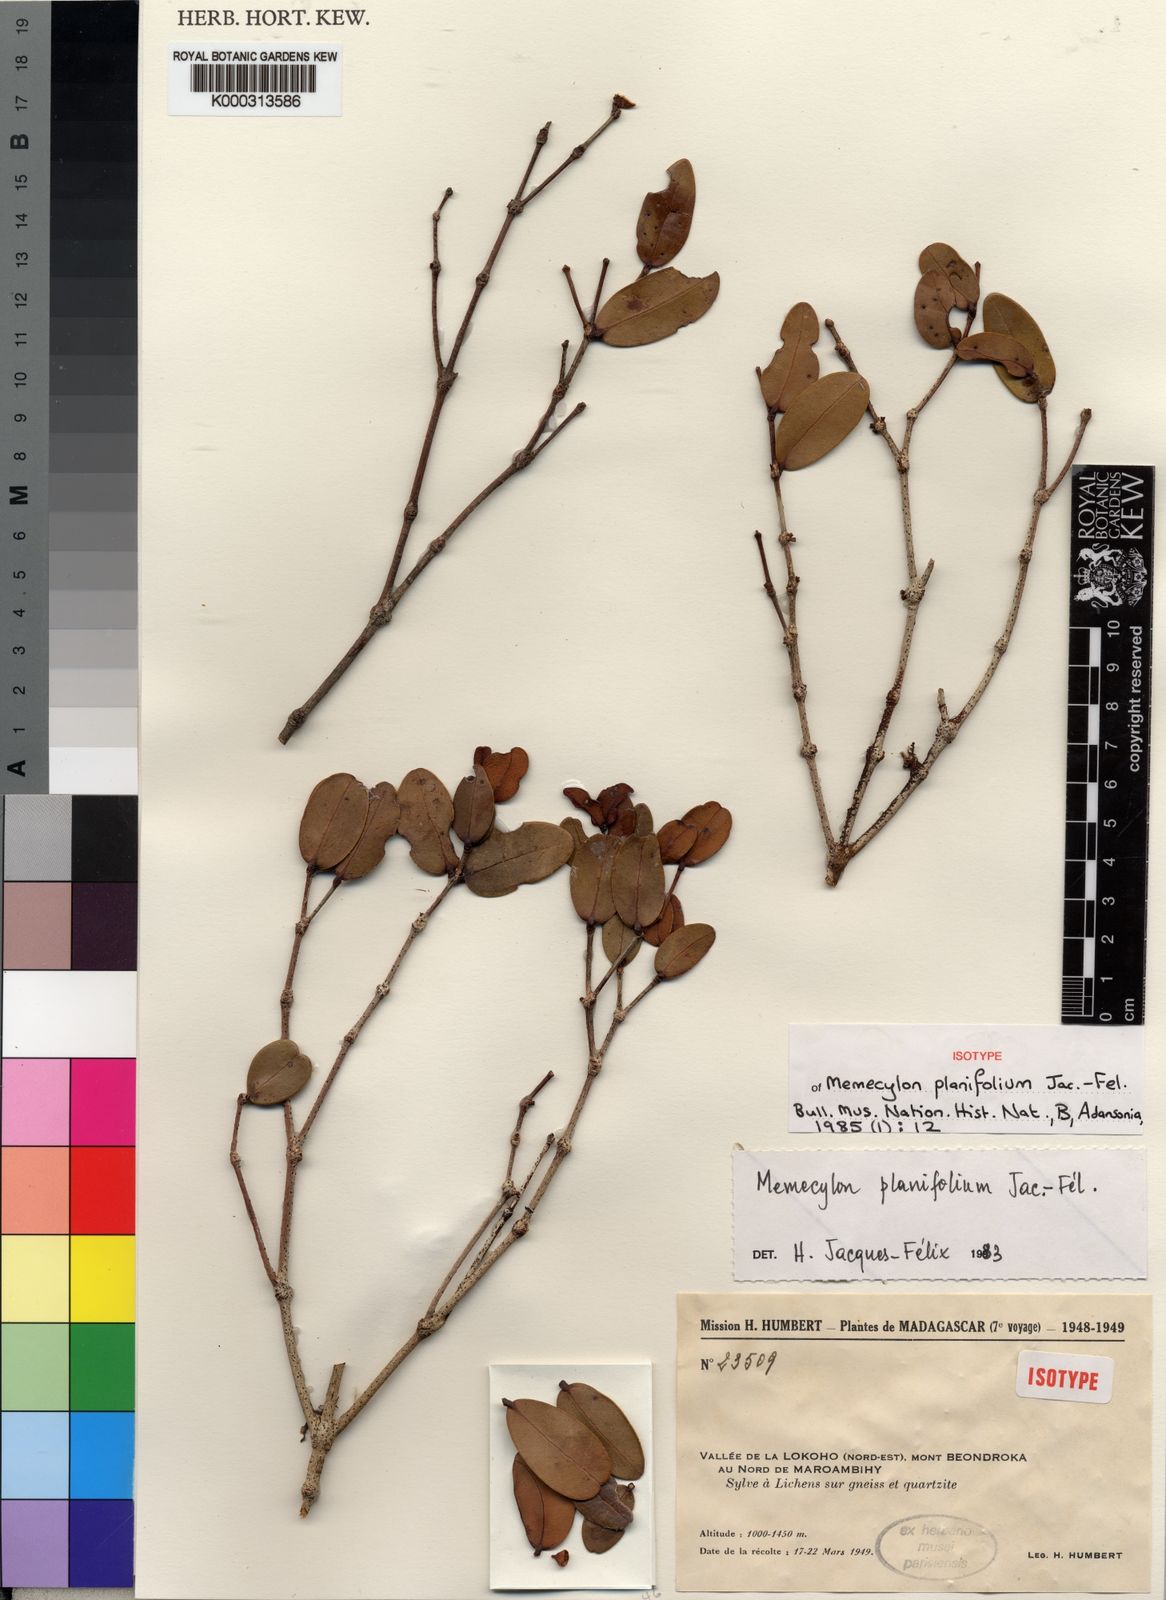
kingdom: Plantae
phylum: Tracheophyta
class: Magnoliopsida
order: Myrtales
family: Melastomataceae
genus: Memecylon
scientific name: Memecylon
